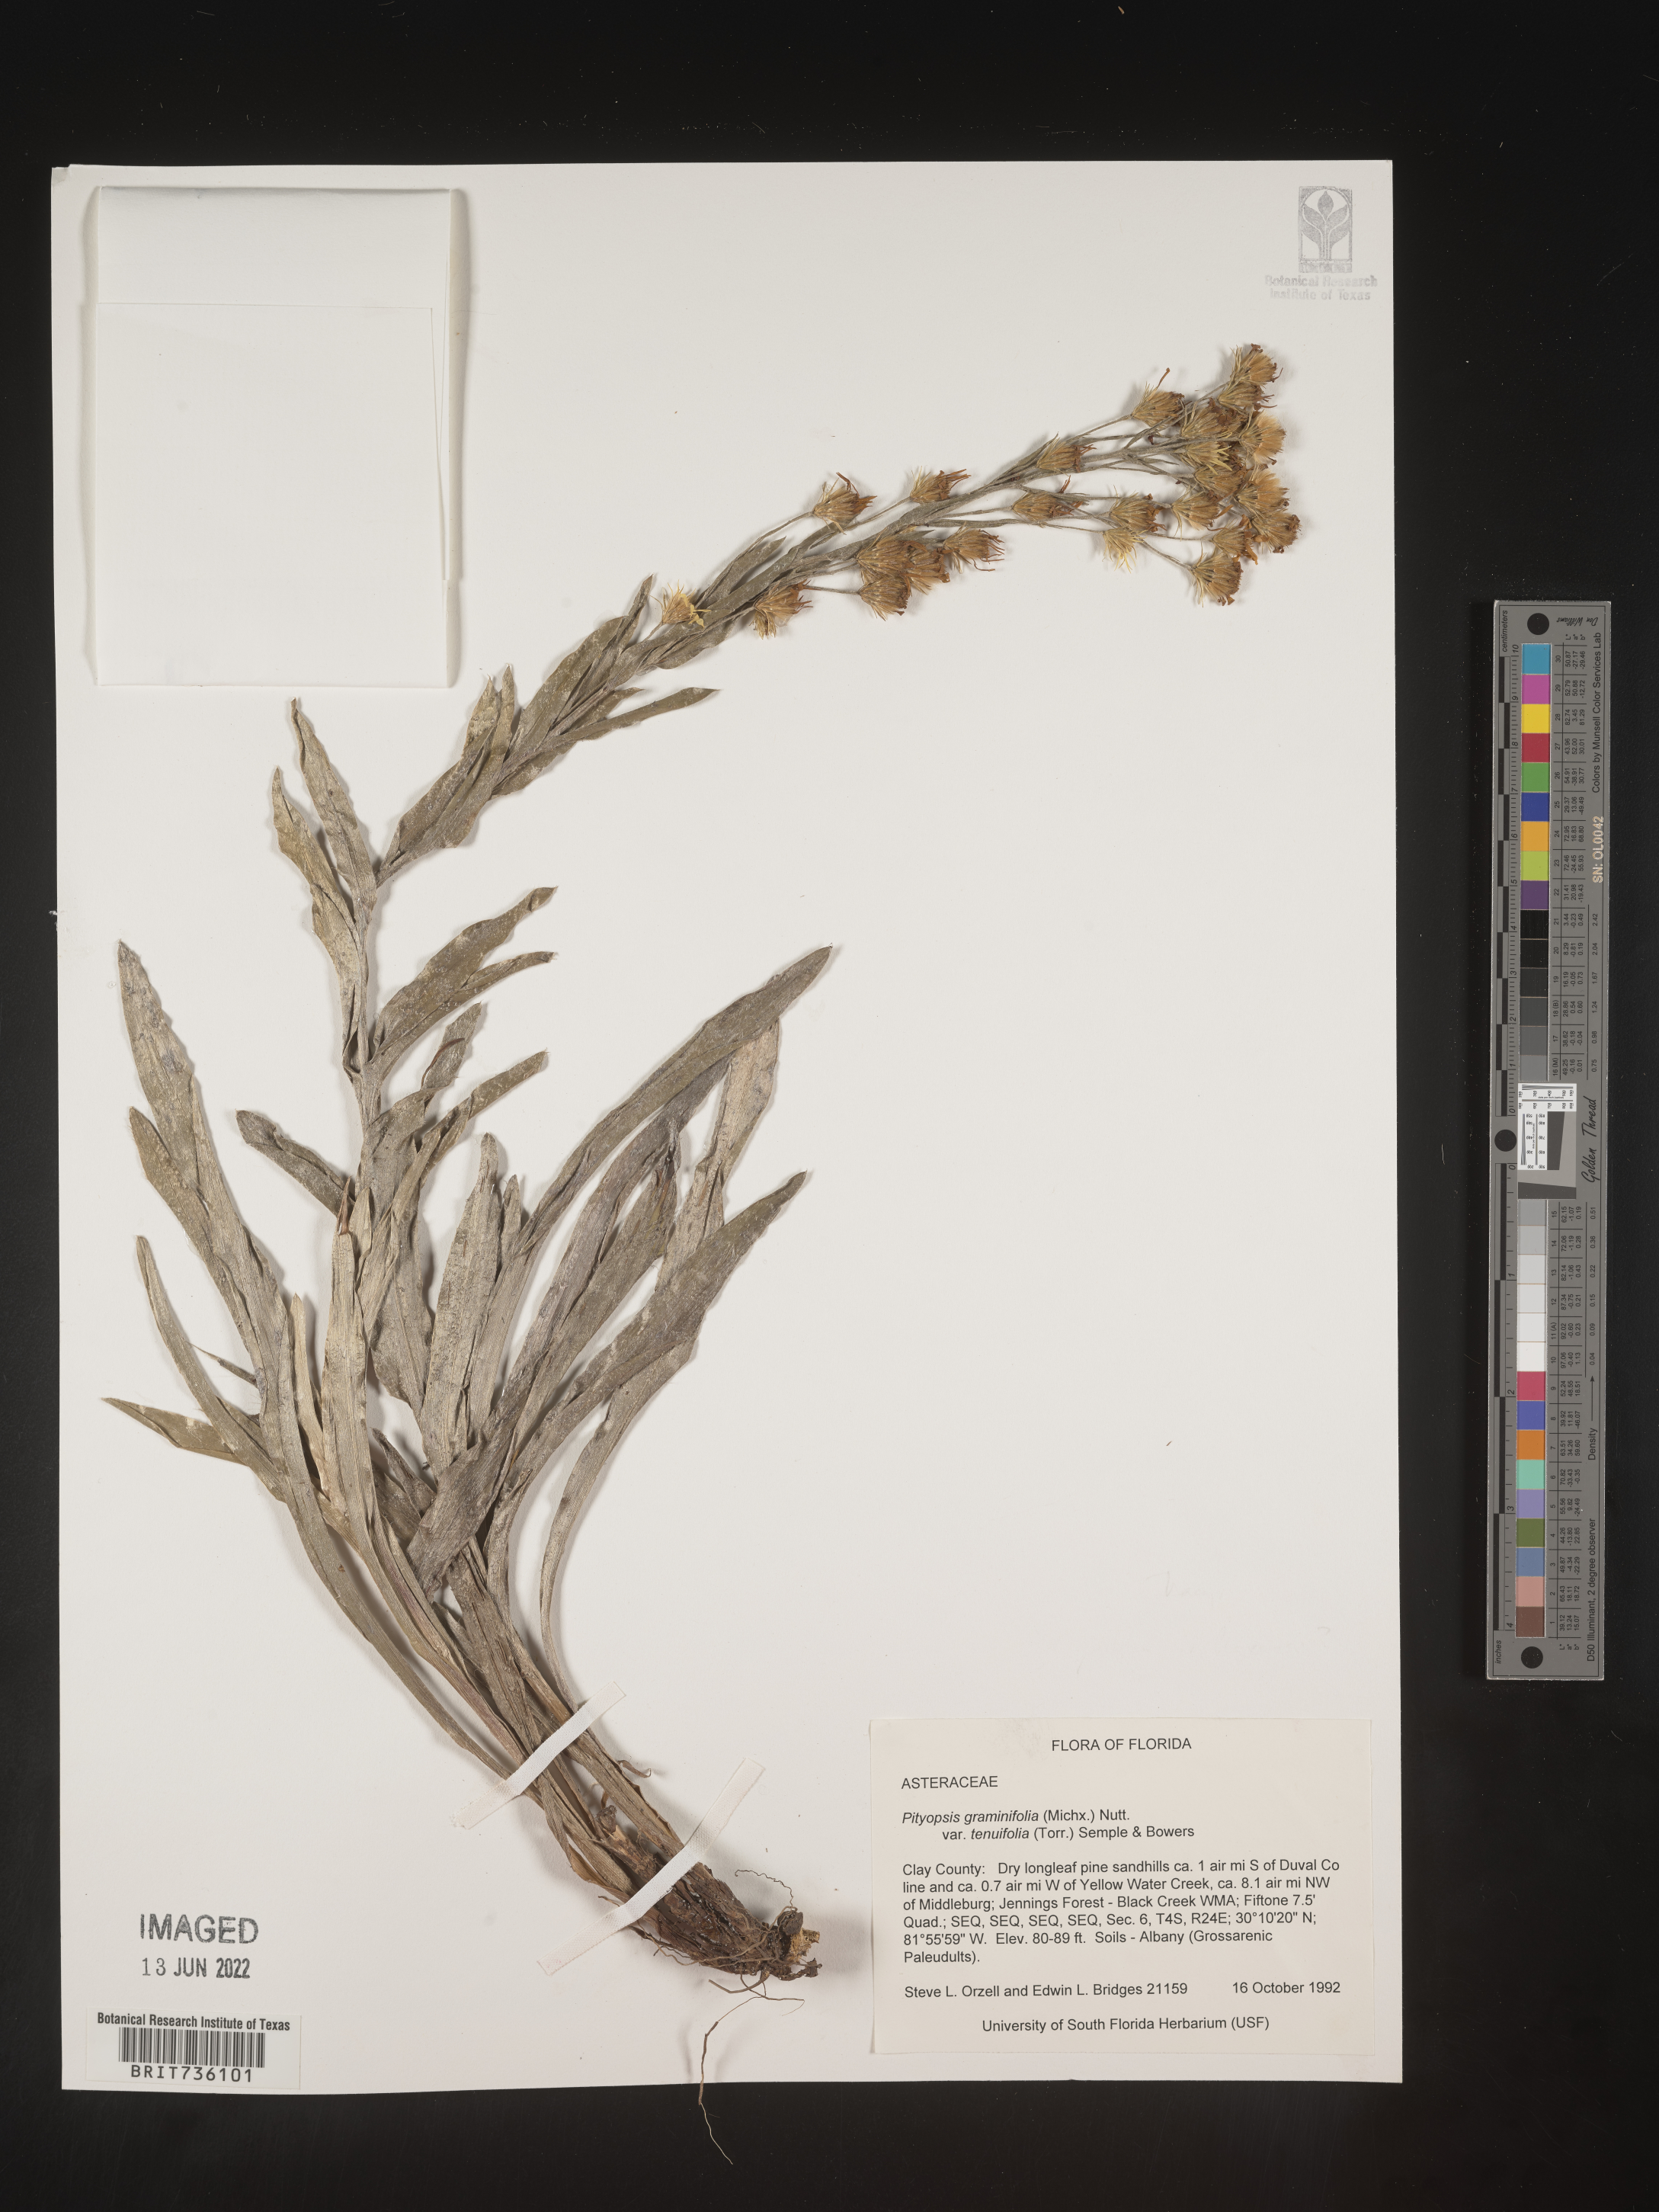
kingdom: Plantae
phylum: Tracheophyta
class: Magnoliopsida
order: Asterales
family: Asteraceae
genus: Pityopsis
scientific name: Pityopsis aequilifolia
